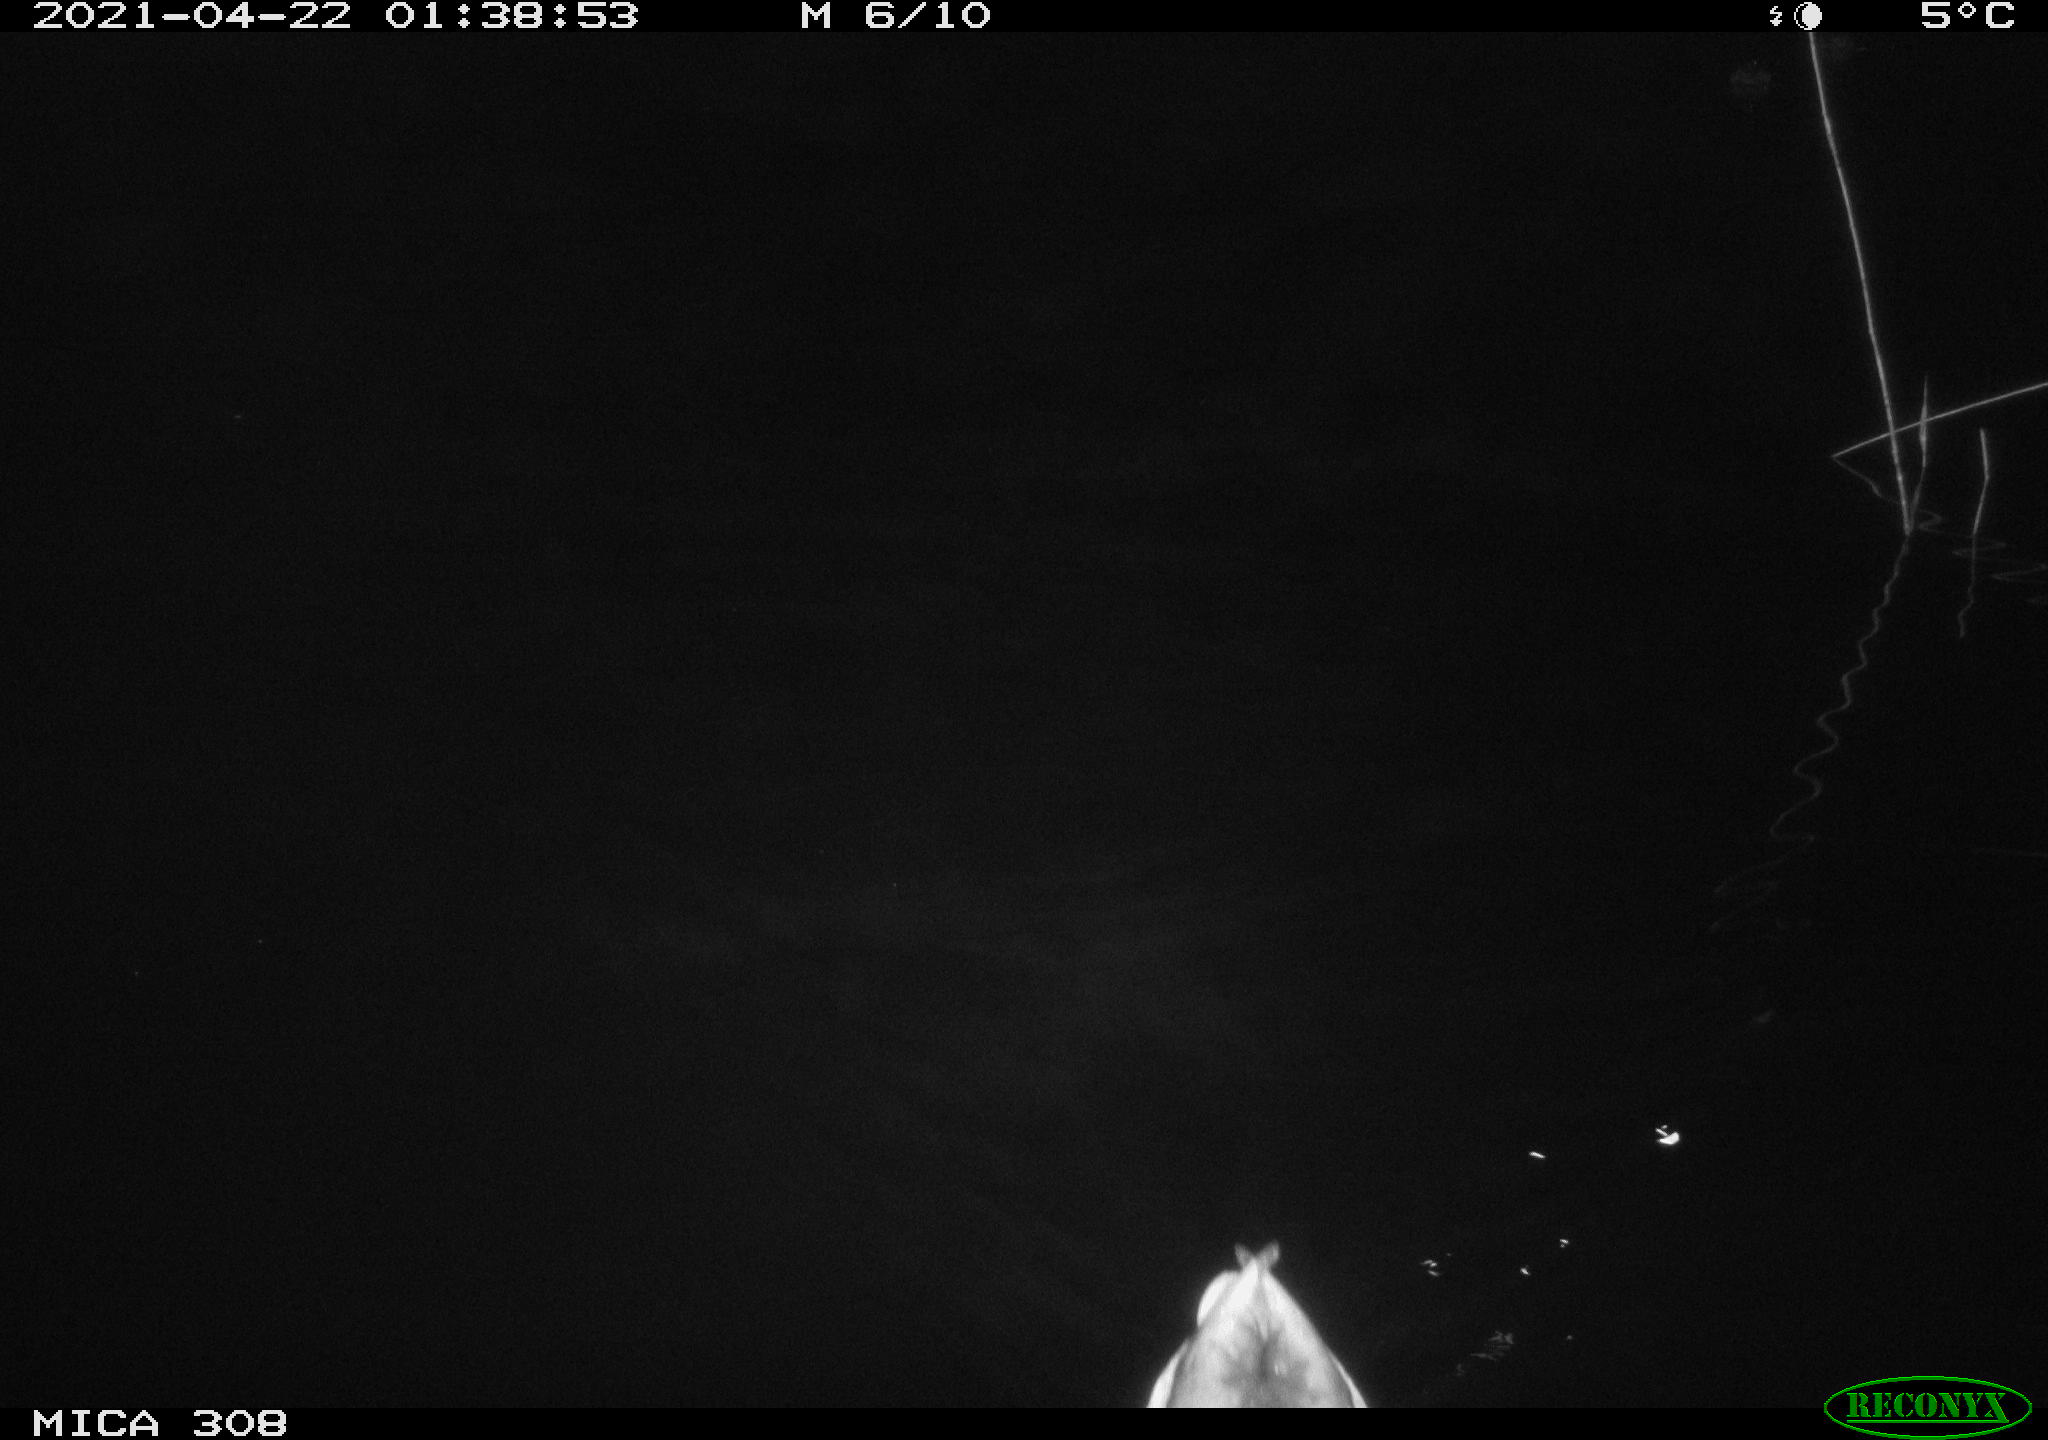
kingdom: Animalia
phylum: Chordata
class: Aves
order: Anseriformes
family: Anatidae
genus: Anas
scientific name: Anas platyrhynchos
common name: Mallard
